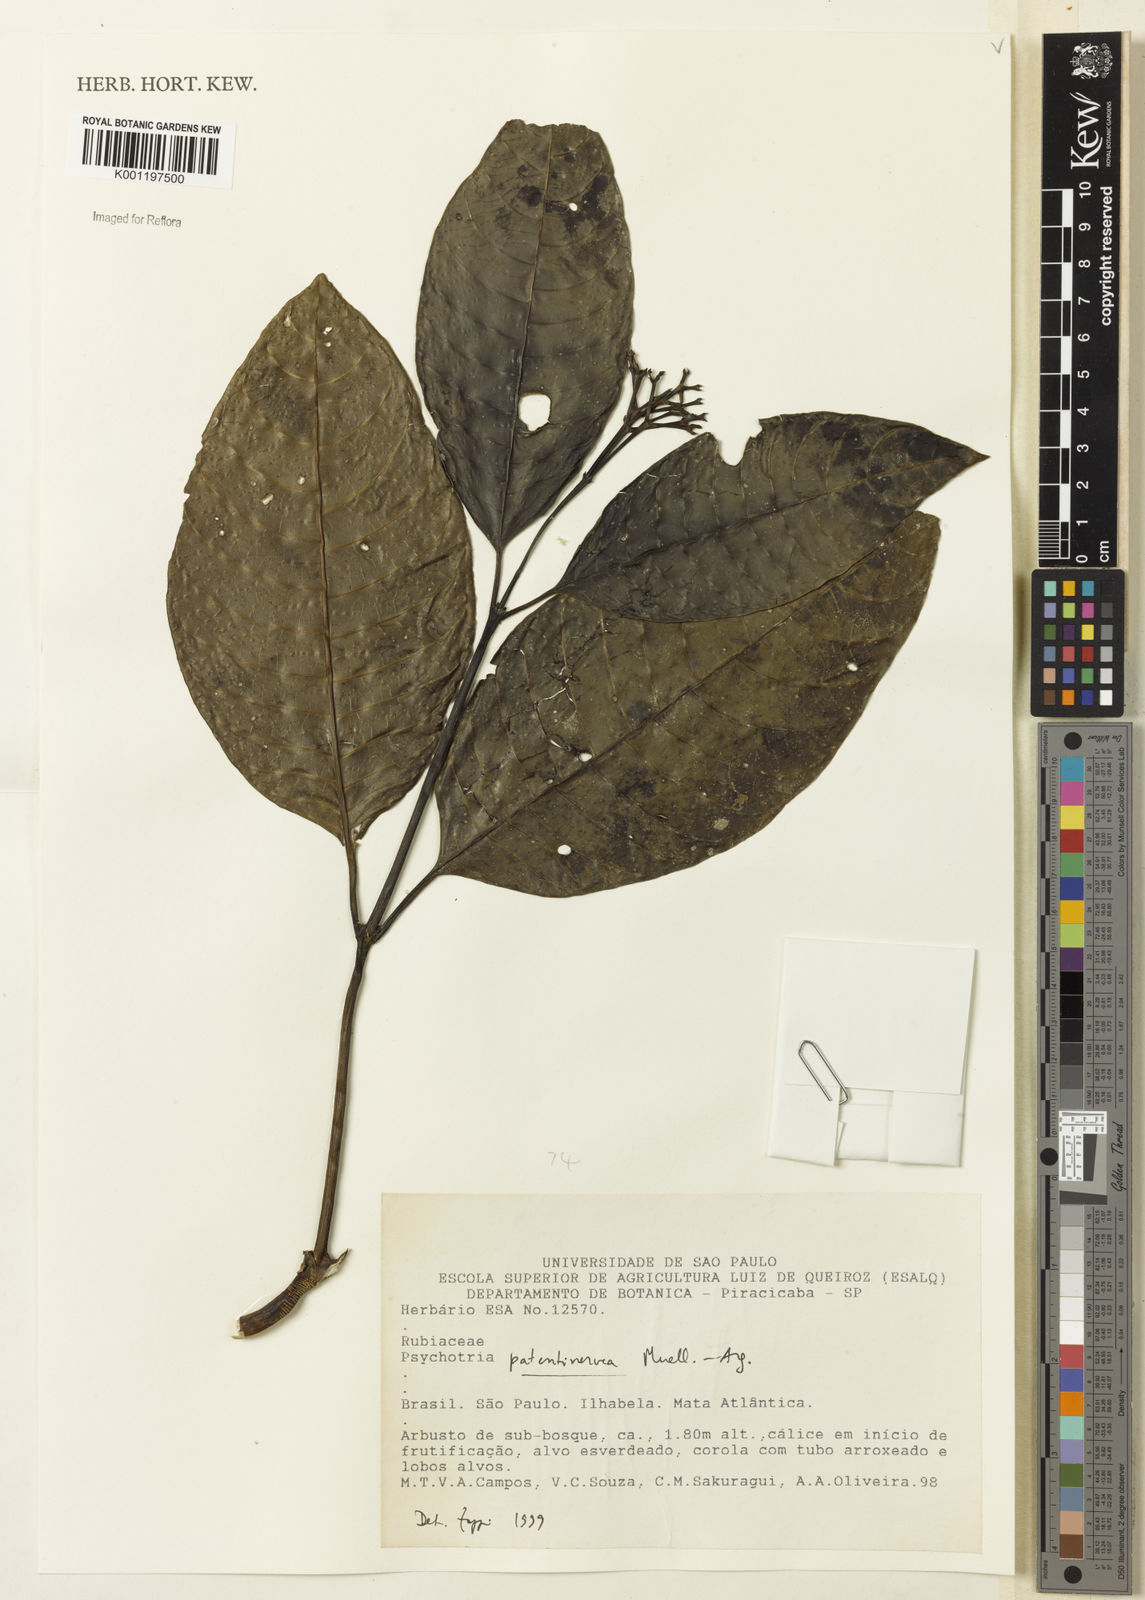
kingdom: Plantae
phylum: Tracheophyta
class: Magnoliopsida
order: Gentianales
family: Rubiaceae
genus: Psychotria
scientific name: Psychotria
